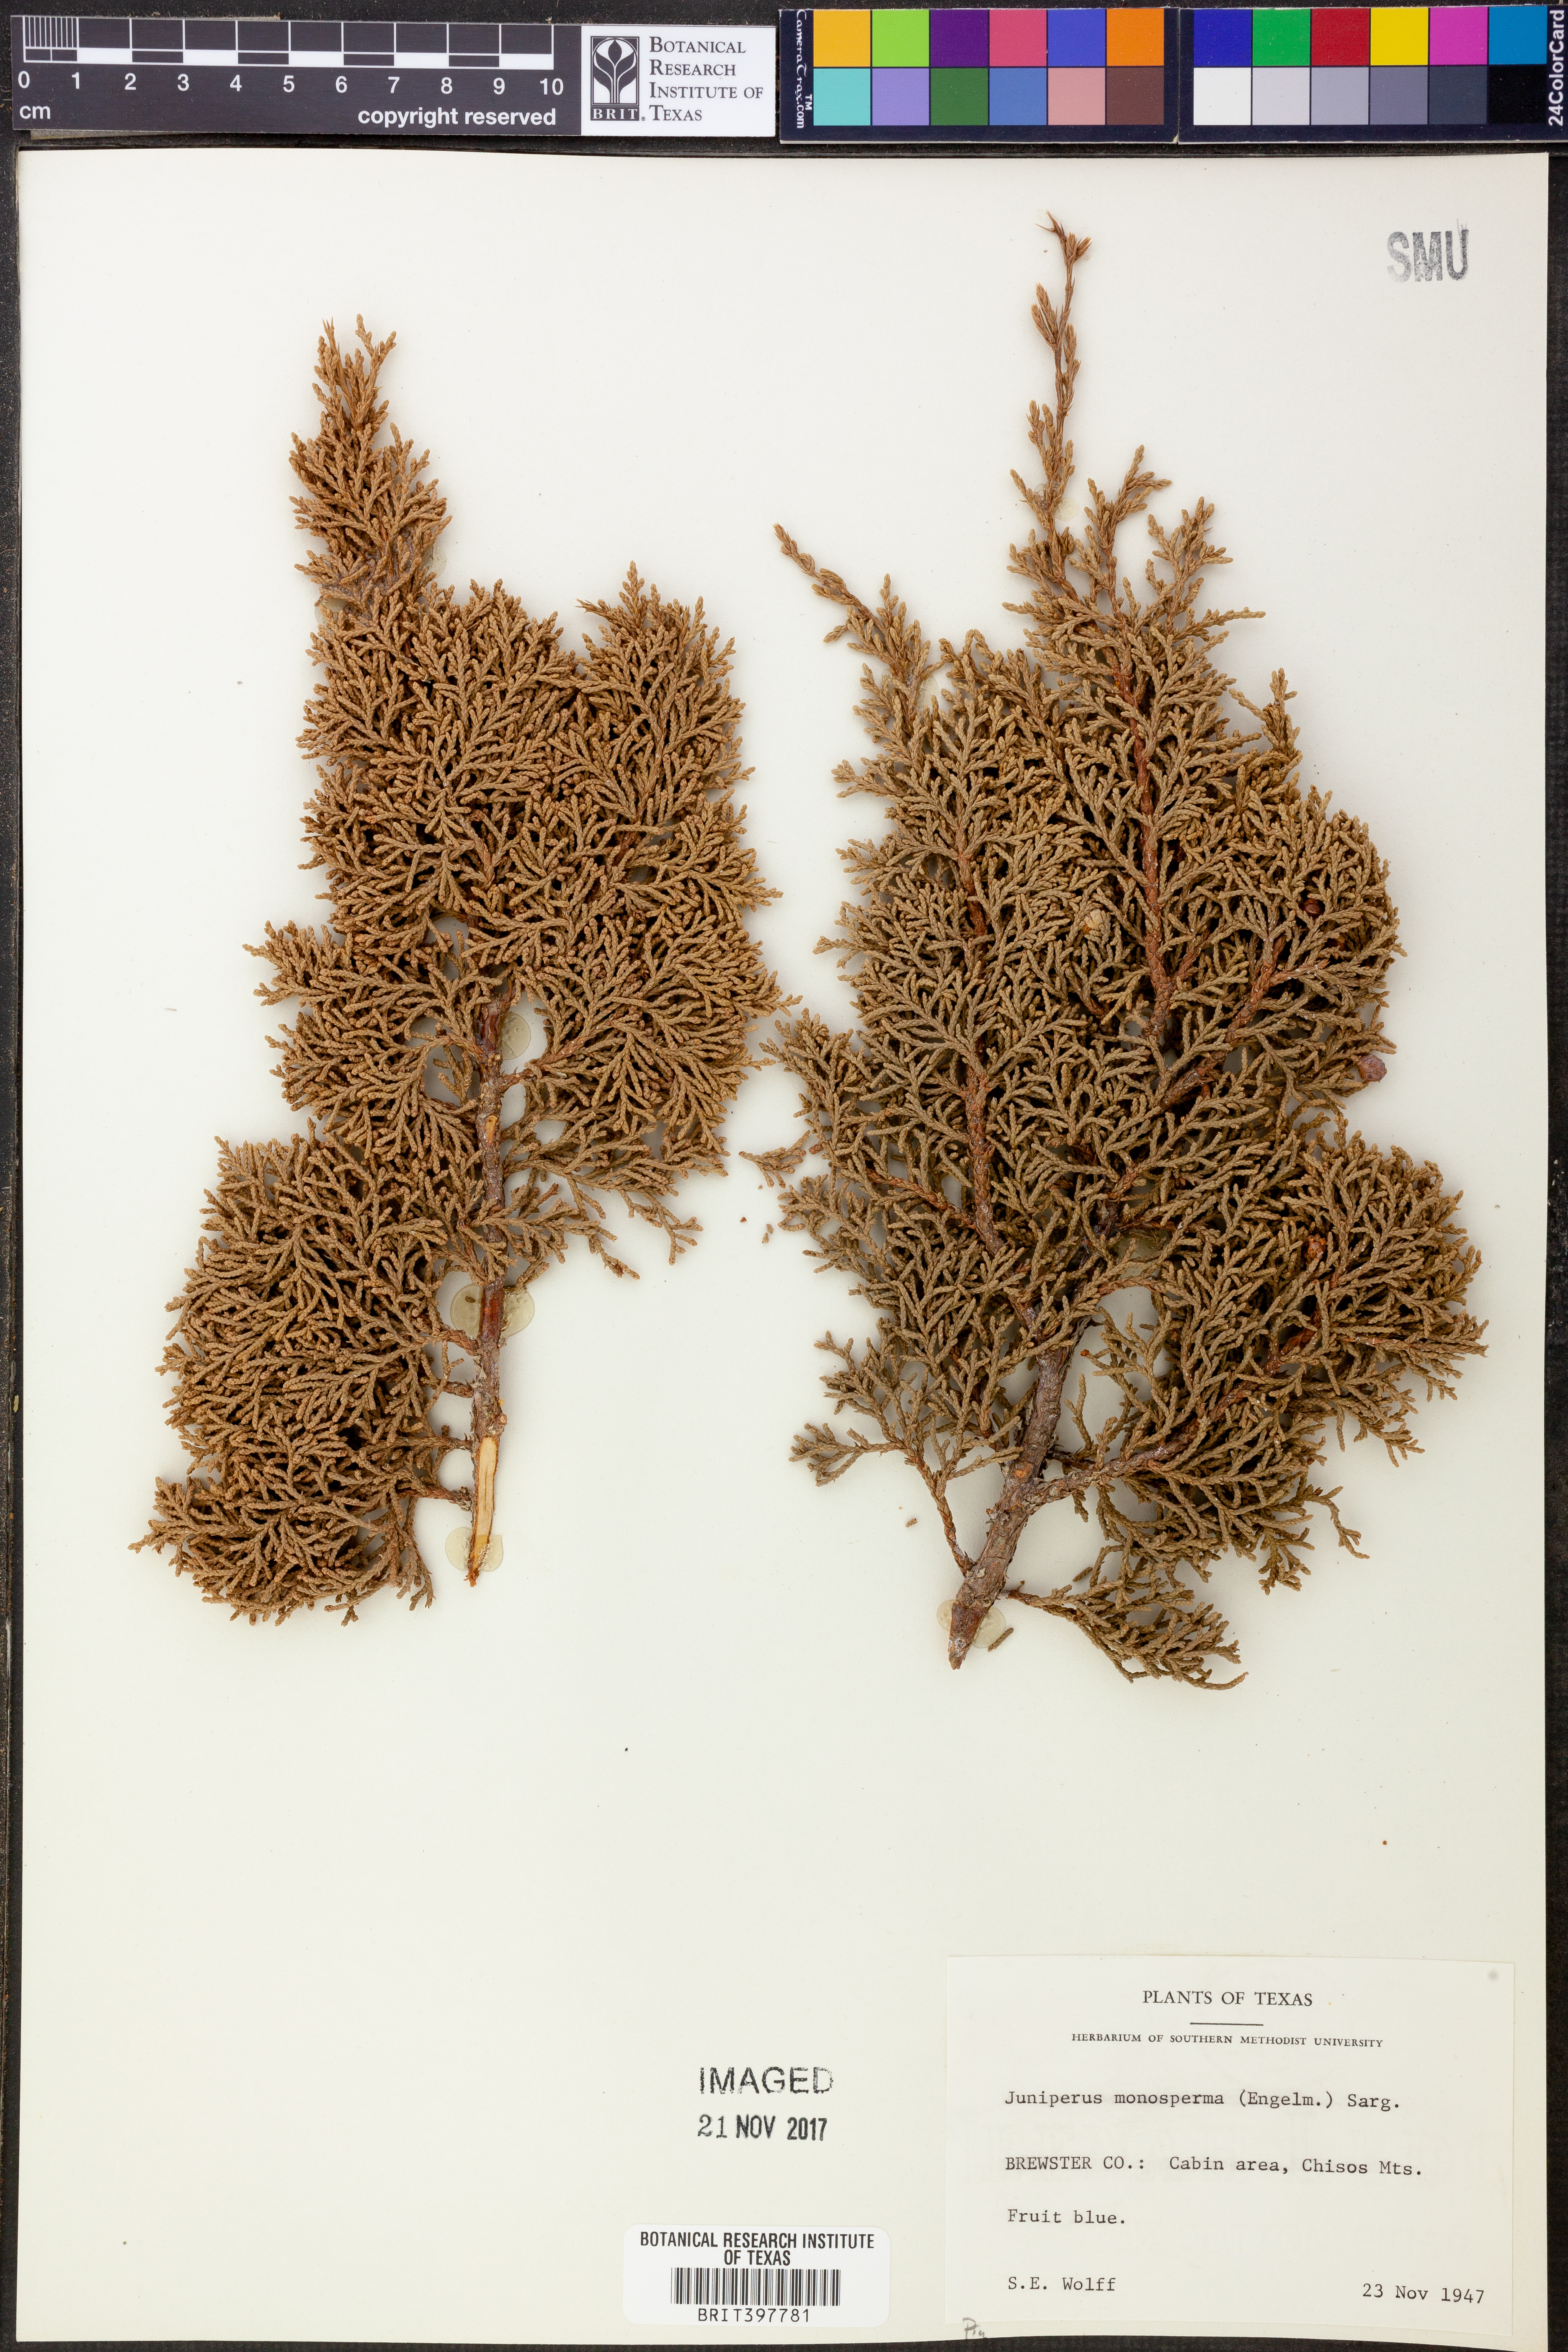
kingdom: Plantae
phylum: Tracheophyta
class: Pinopsida
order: Pinales
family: Cupressaceae
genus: Juniperus
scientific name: Juniperus monosperma
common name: One-seed juniper
